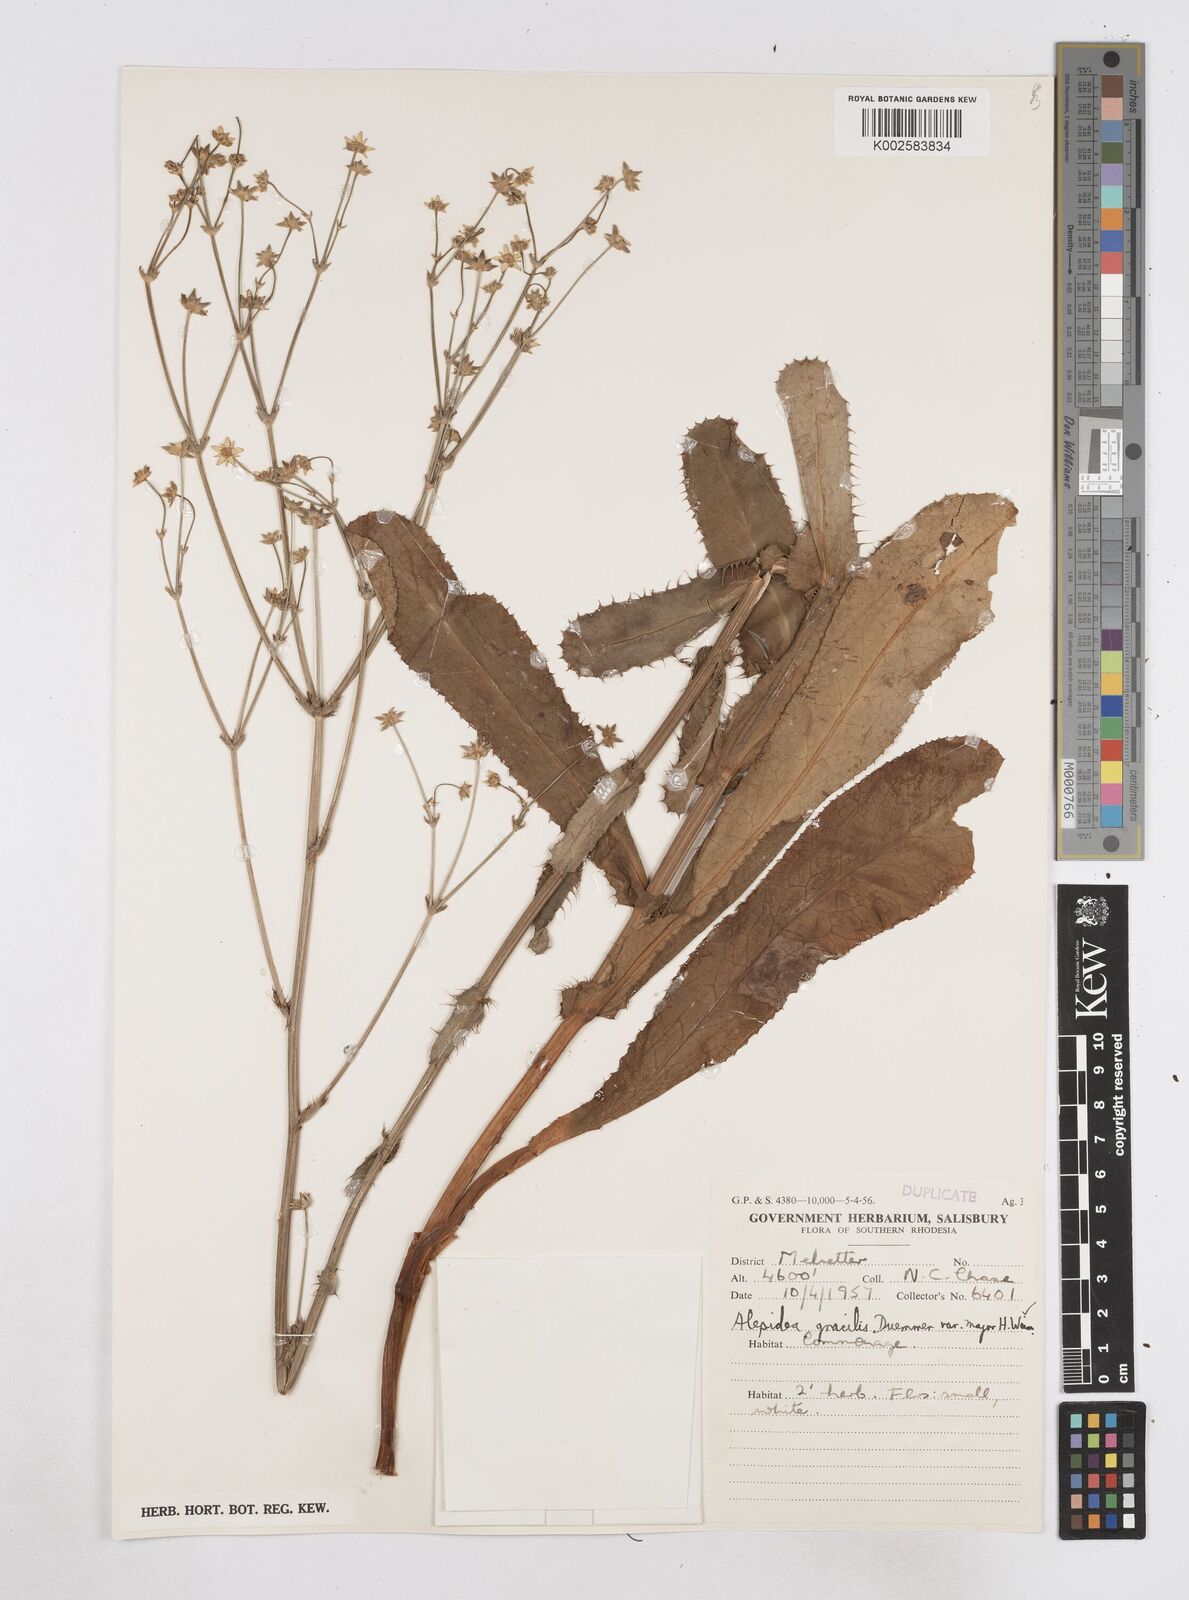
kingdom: Plantae
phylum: Tracheophyta
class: Magnoliopsida
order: Apiales
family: Apiaceae
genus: Alepidea
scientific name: Alepidea peduncularis
